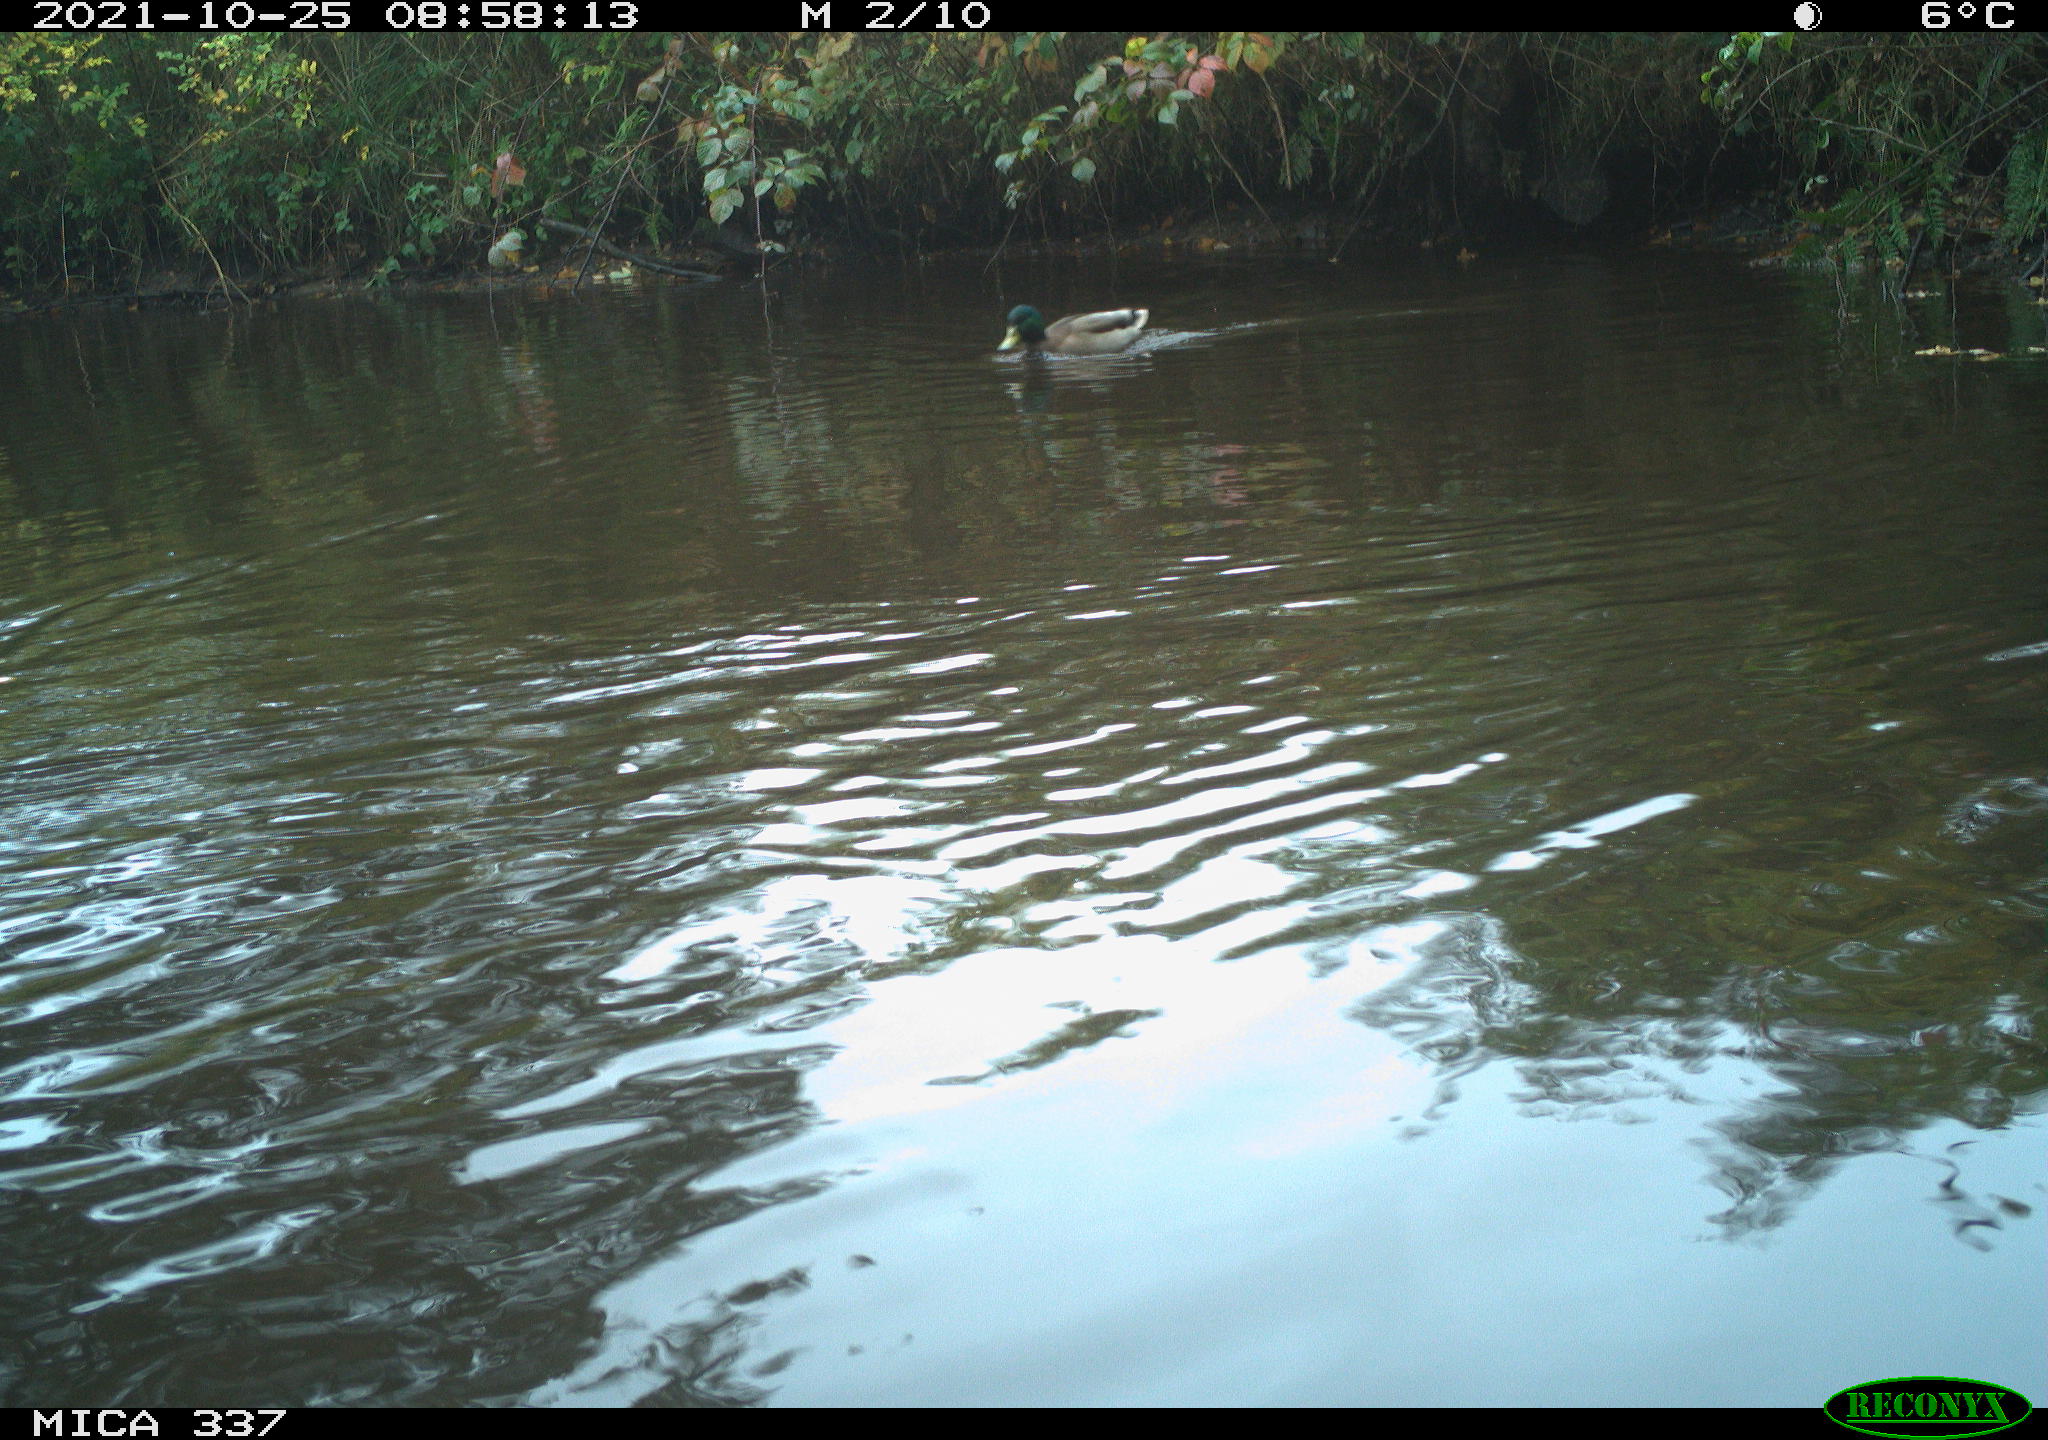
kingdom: Animalia
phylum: Chordata
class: Aves
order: Anseriformes
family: Anatidae
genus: Anas
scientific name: Anas platyrhynchos
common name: Mallard
